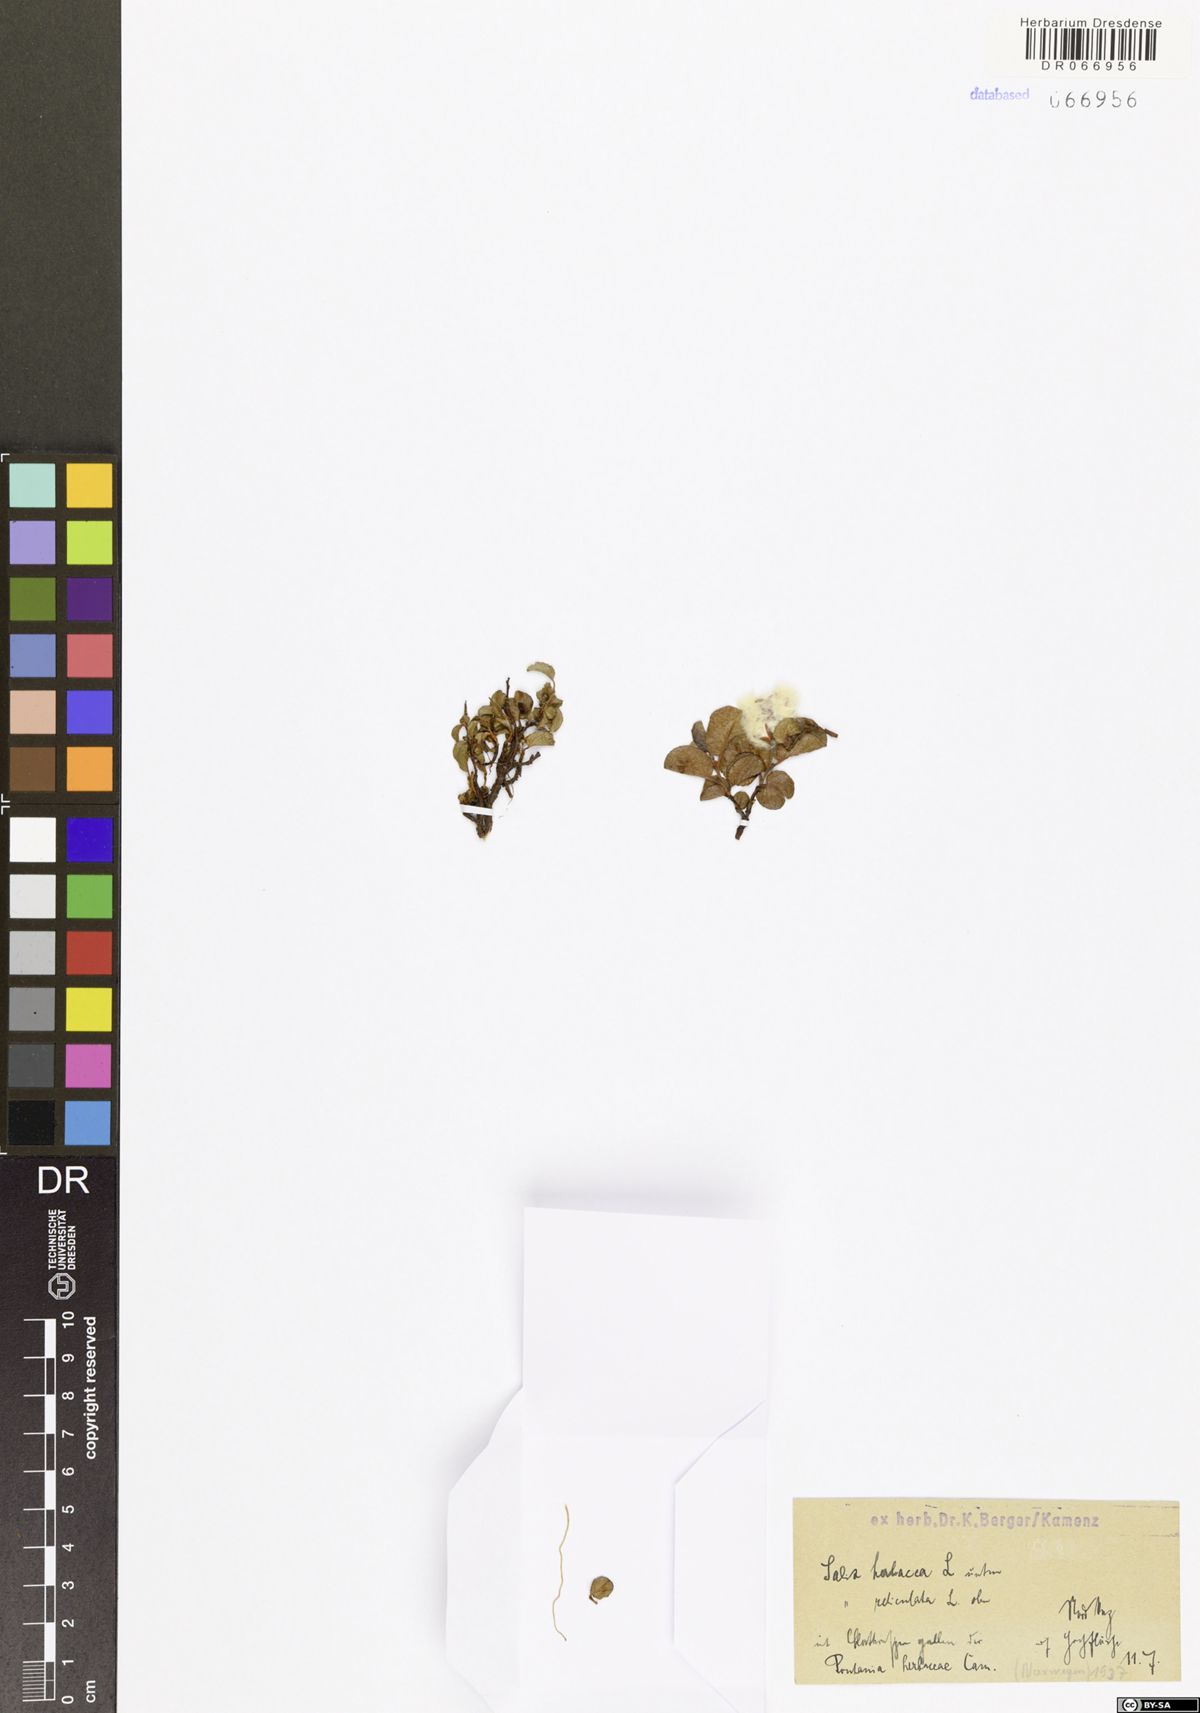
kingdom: Plantae
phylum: Tracheophyta
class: Magnoliopsida
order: Malpighiales
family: Salicaceae
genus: Salix
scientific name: Salix herbacea
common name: Dwarf willow
